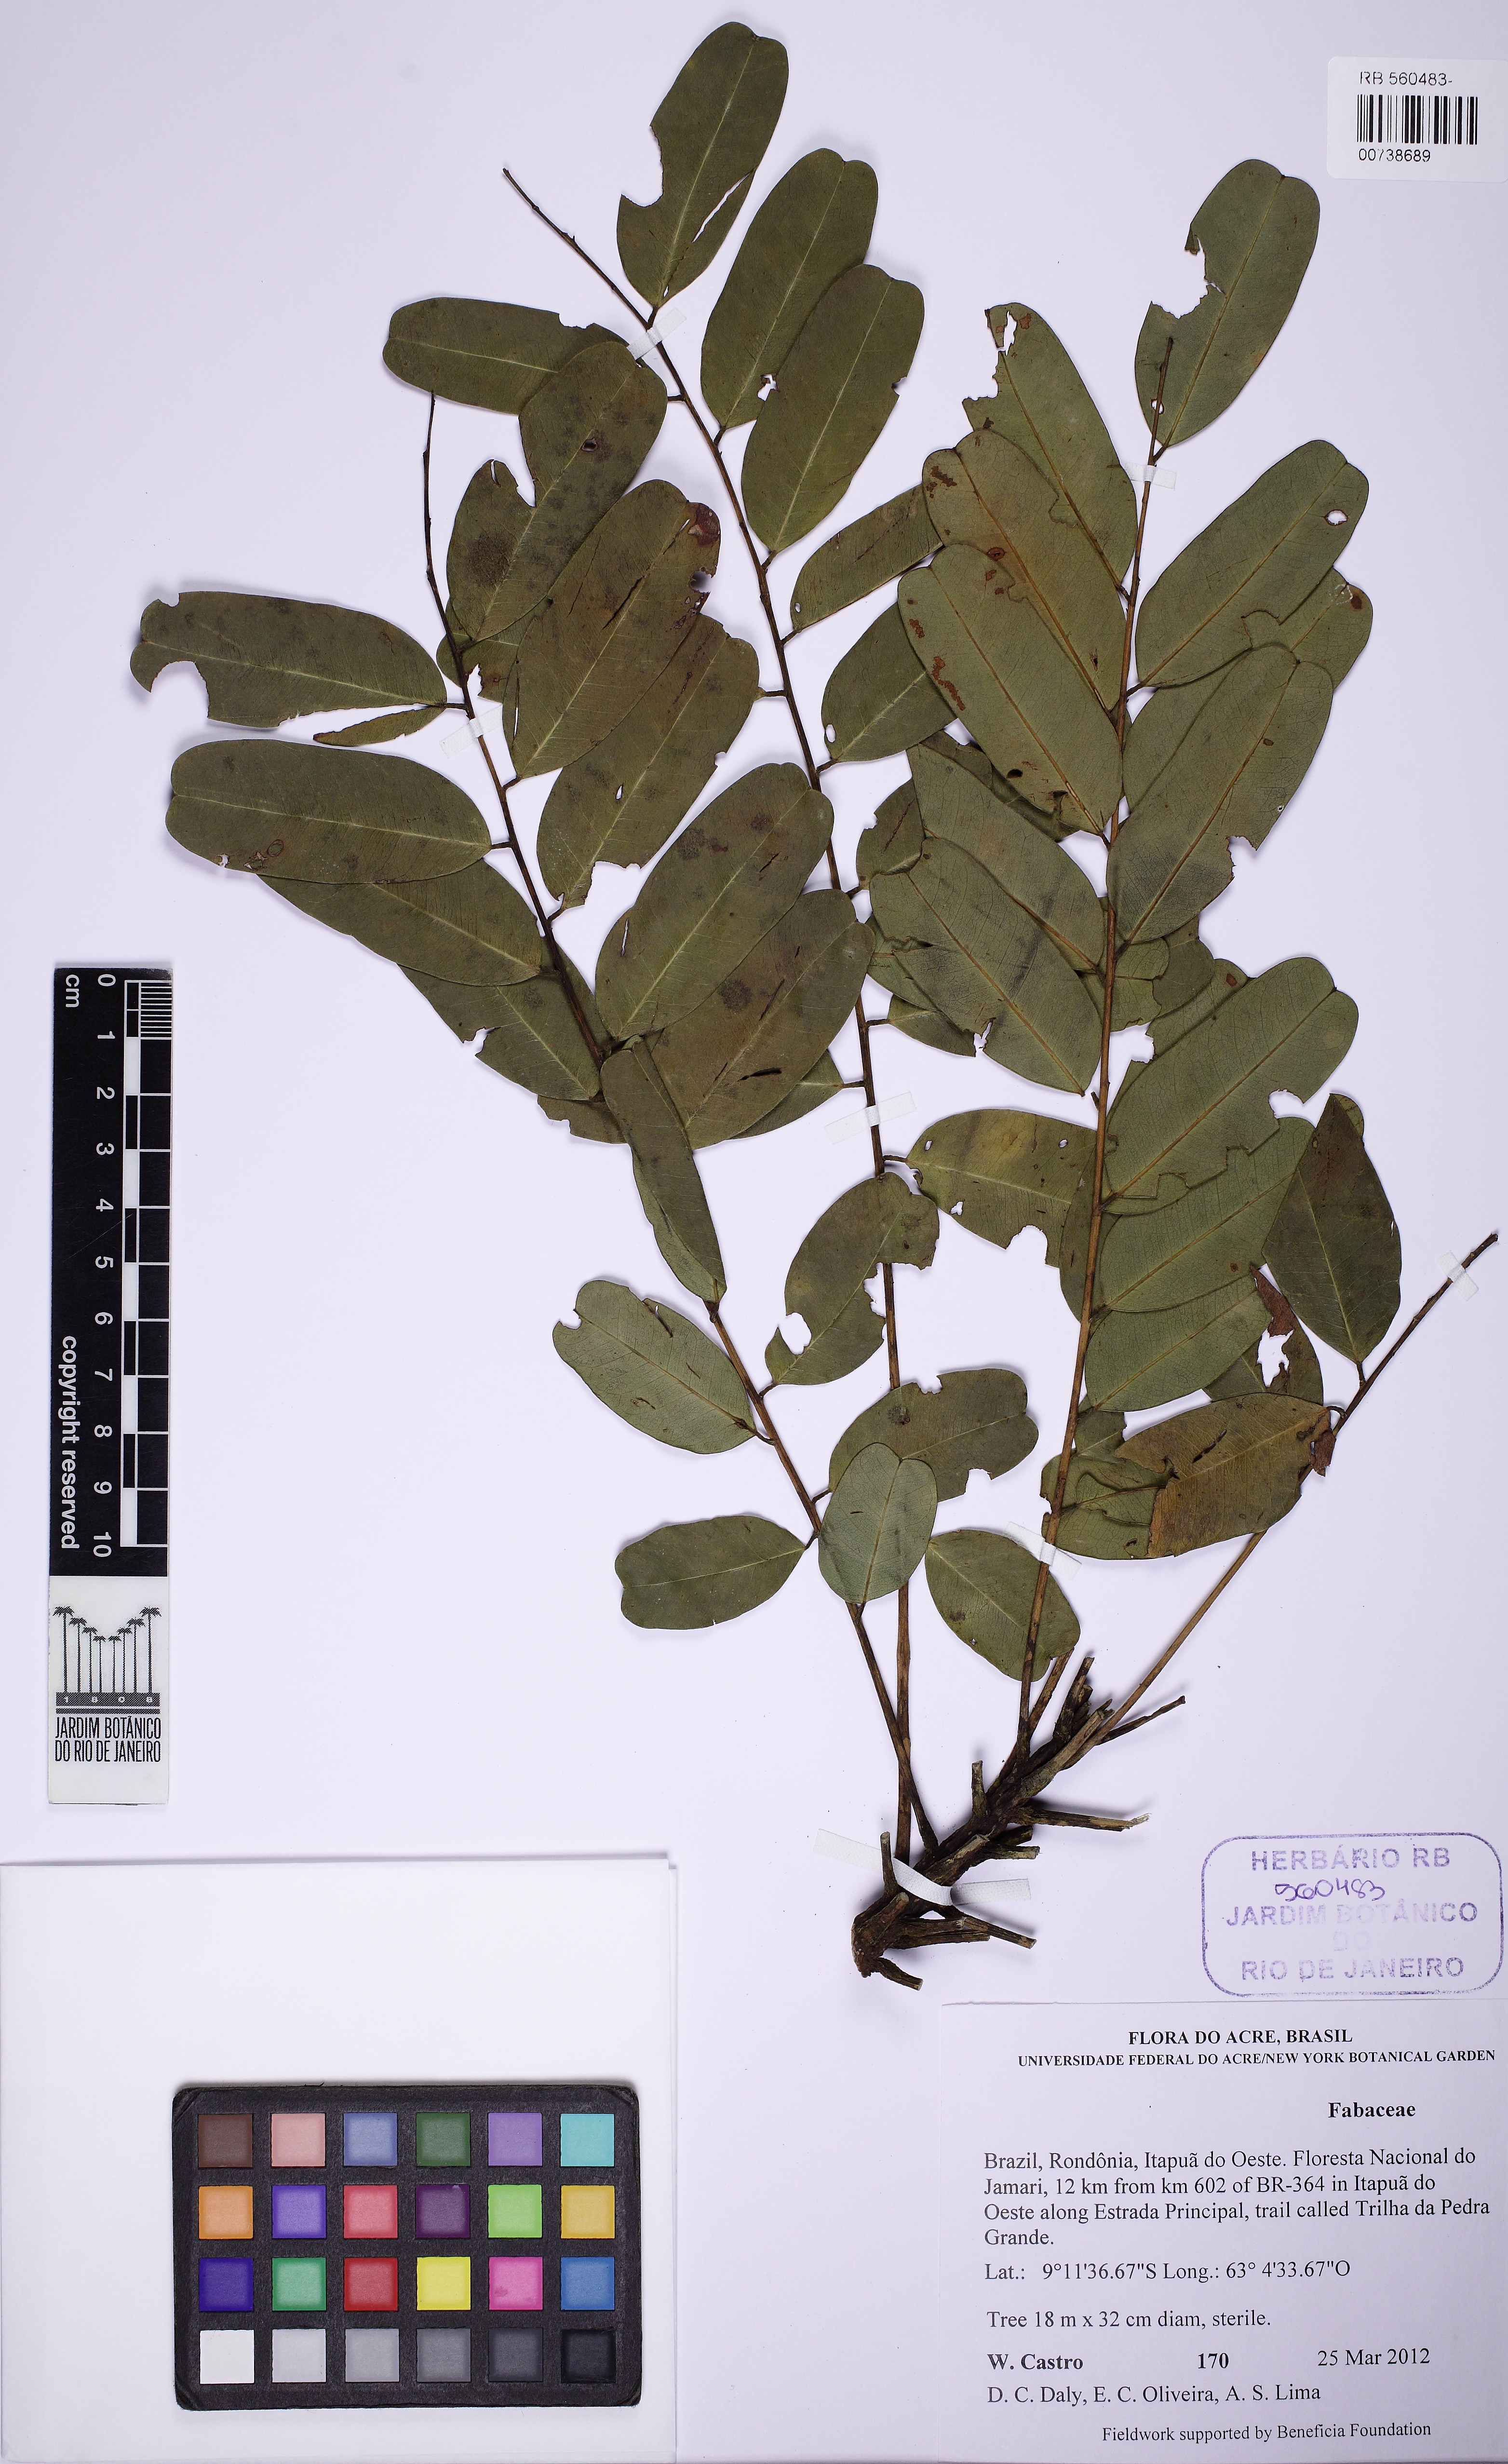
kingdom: Plantae
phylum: Tracheophyta
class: Magnoliopsida
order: Fabales
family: Fabaceae
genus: Vataireopsis
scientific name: Vataireopsis speciosa
